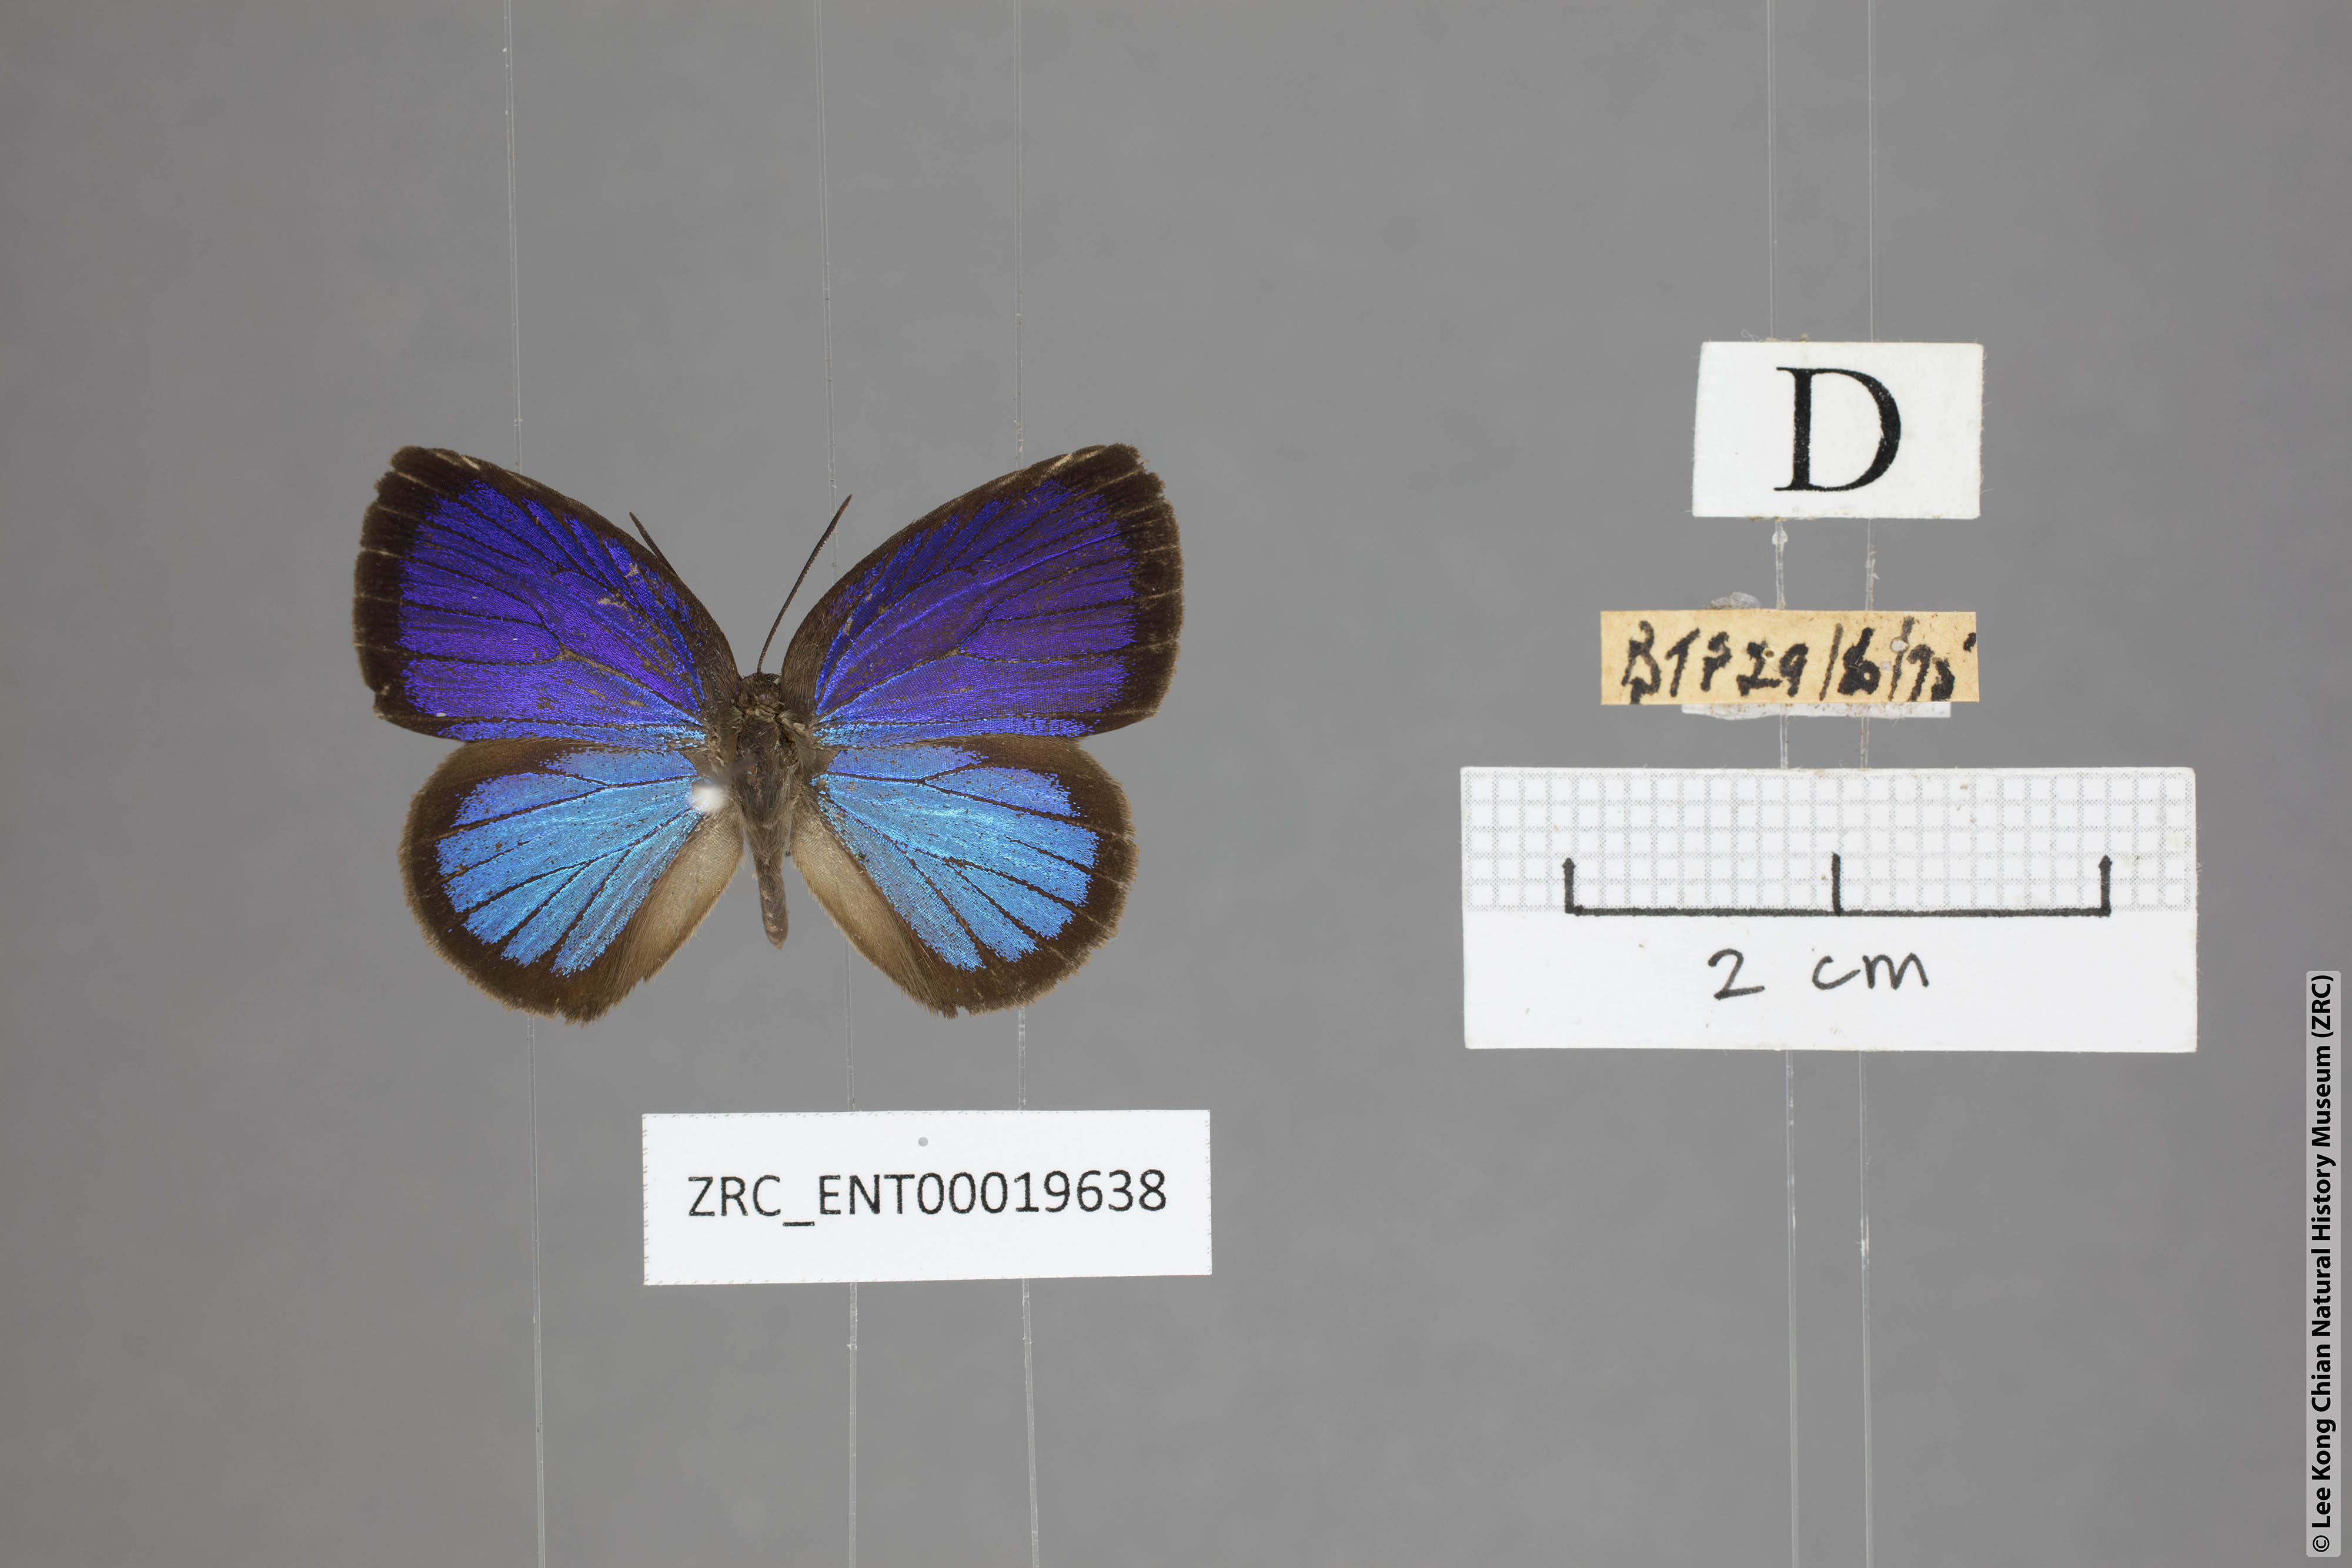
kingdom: Animalia
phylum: Arthropoda
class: Insecta
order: Lepidoptera
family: Lycaenidae
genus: Arhopala
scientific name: Arhopala metamuta
